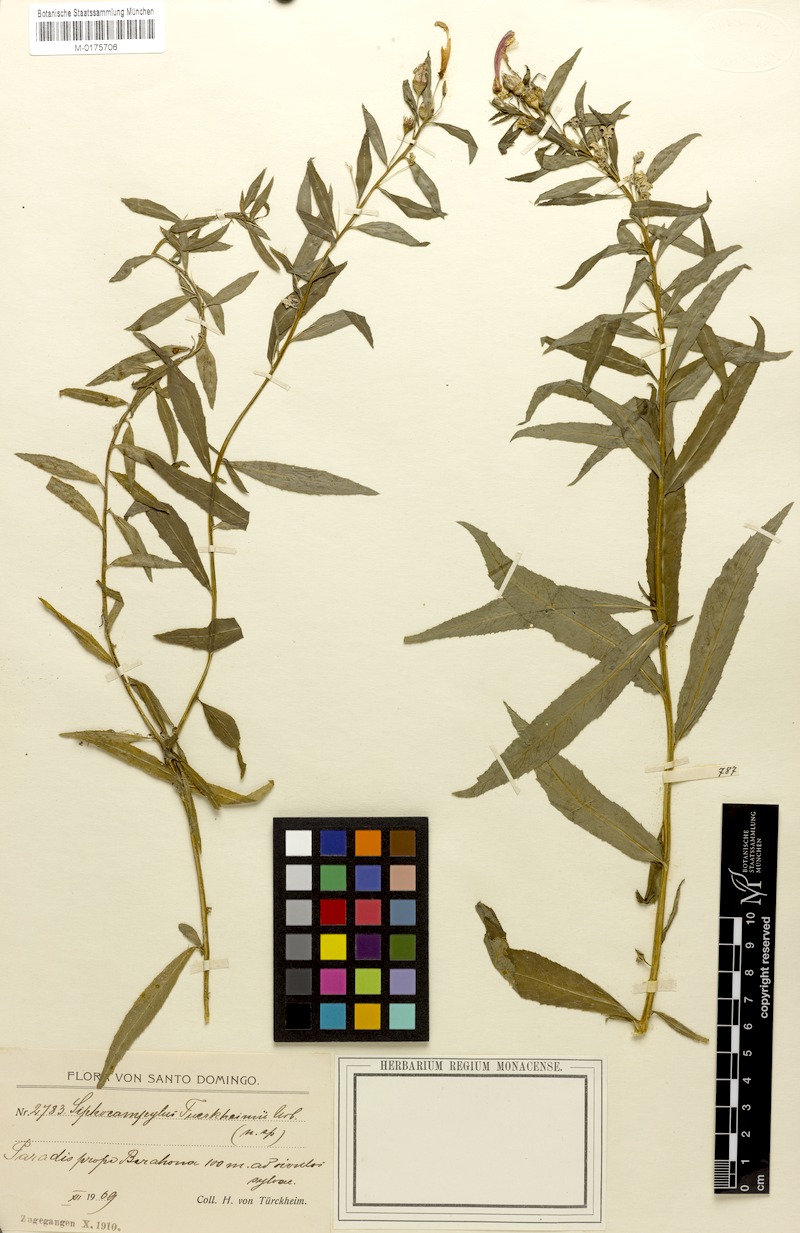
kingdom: Plantae
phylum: Tracheophyta
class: Magnoliopsida
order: Asterales
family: Campanulaceae
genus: Siphocampylus
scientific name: Siphocampylus sonchifolius
